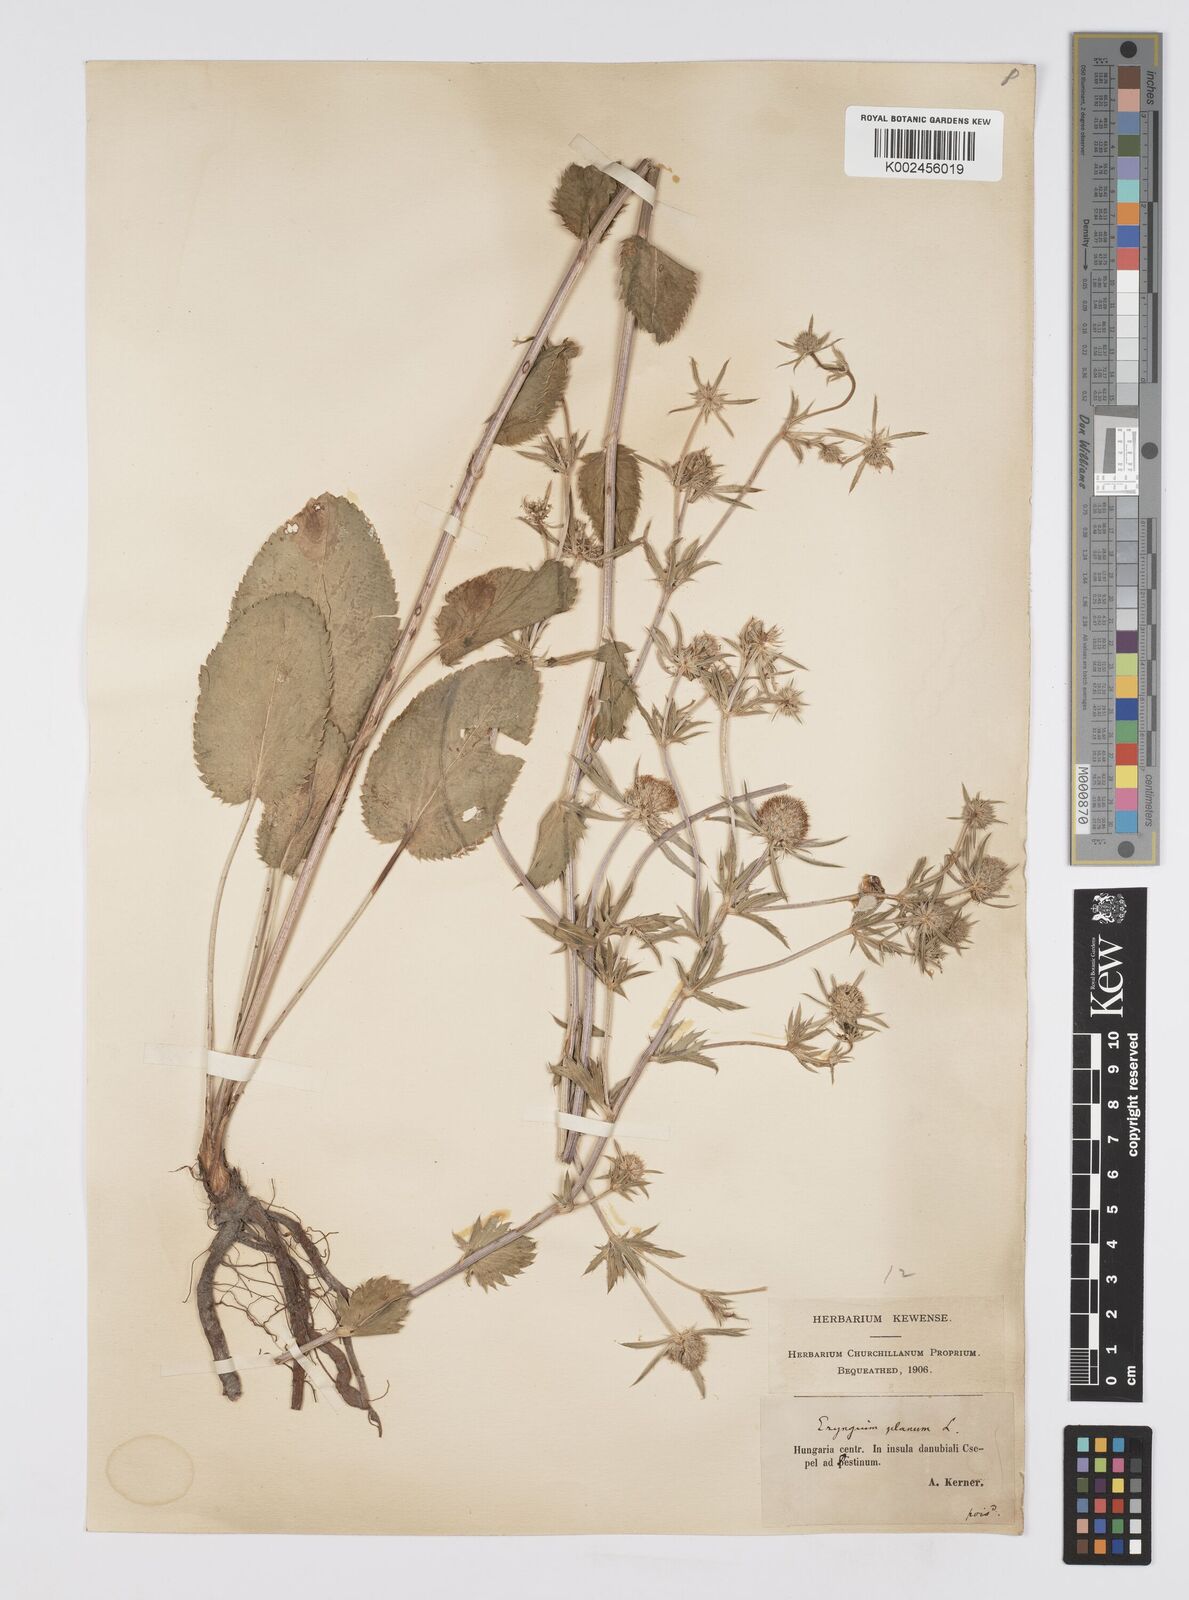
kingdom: Plantae
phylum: Tracheophyta
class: Magnoliopsida
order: Apiales
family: Apiaceae
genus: Eryngium
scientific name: Eryngium planum
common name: Blue eryngo
